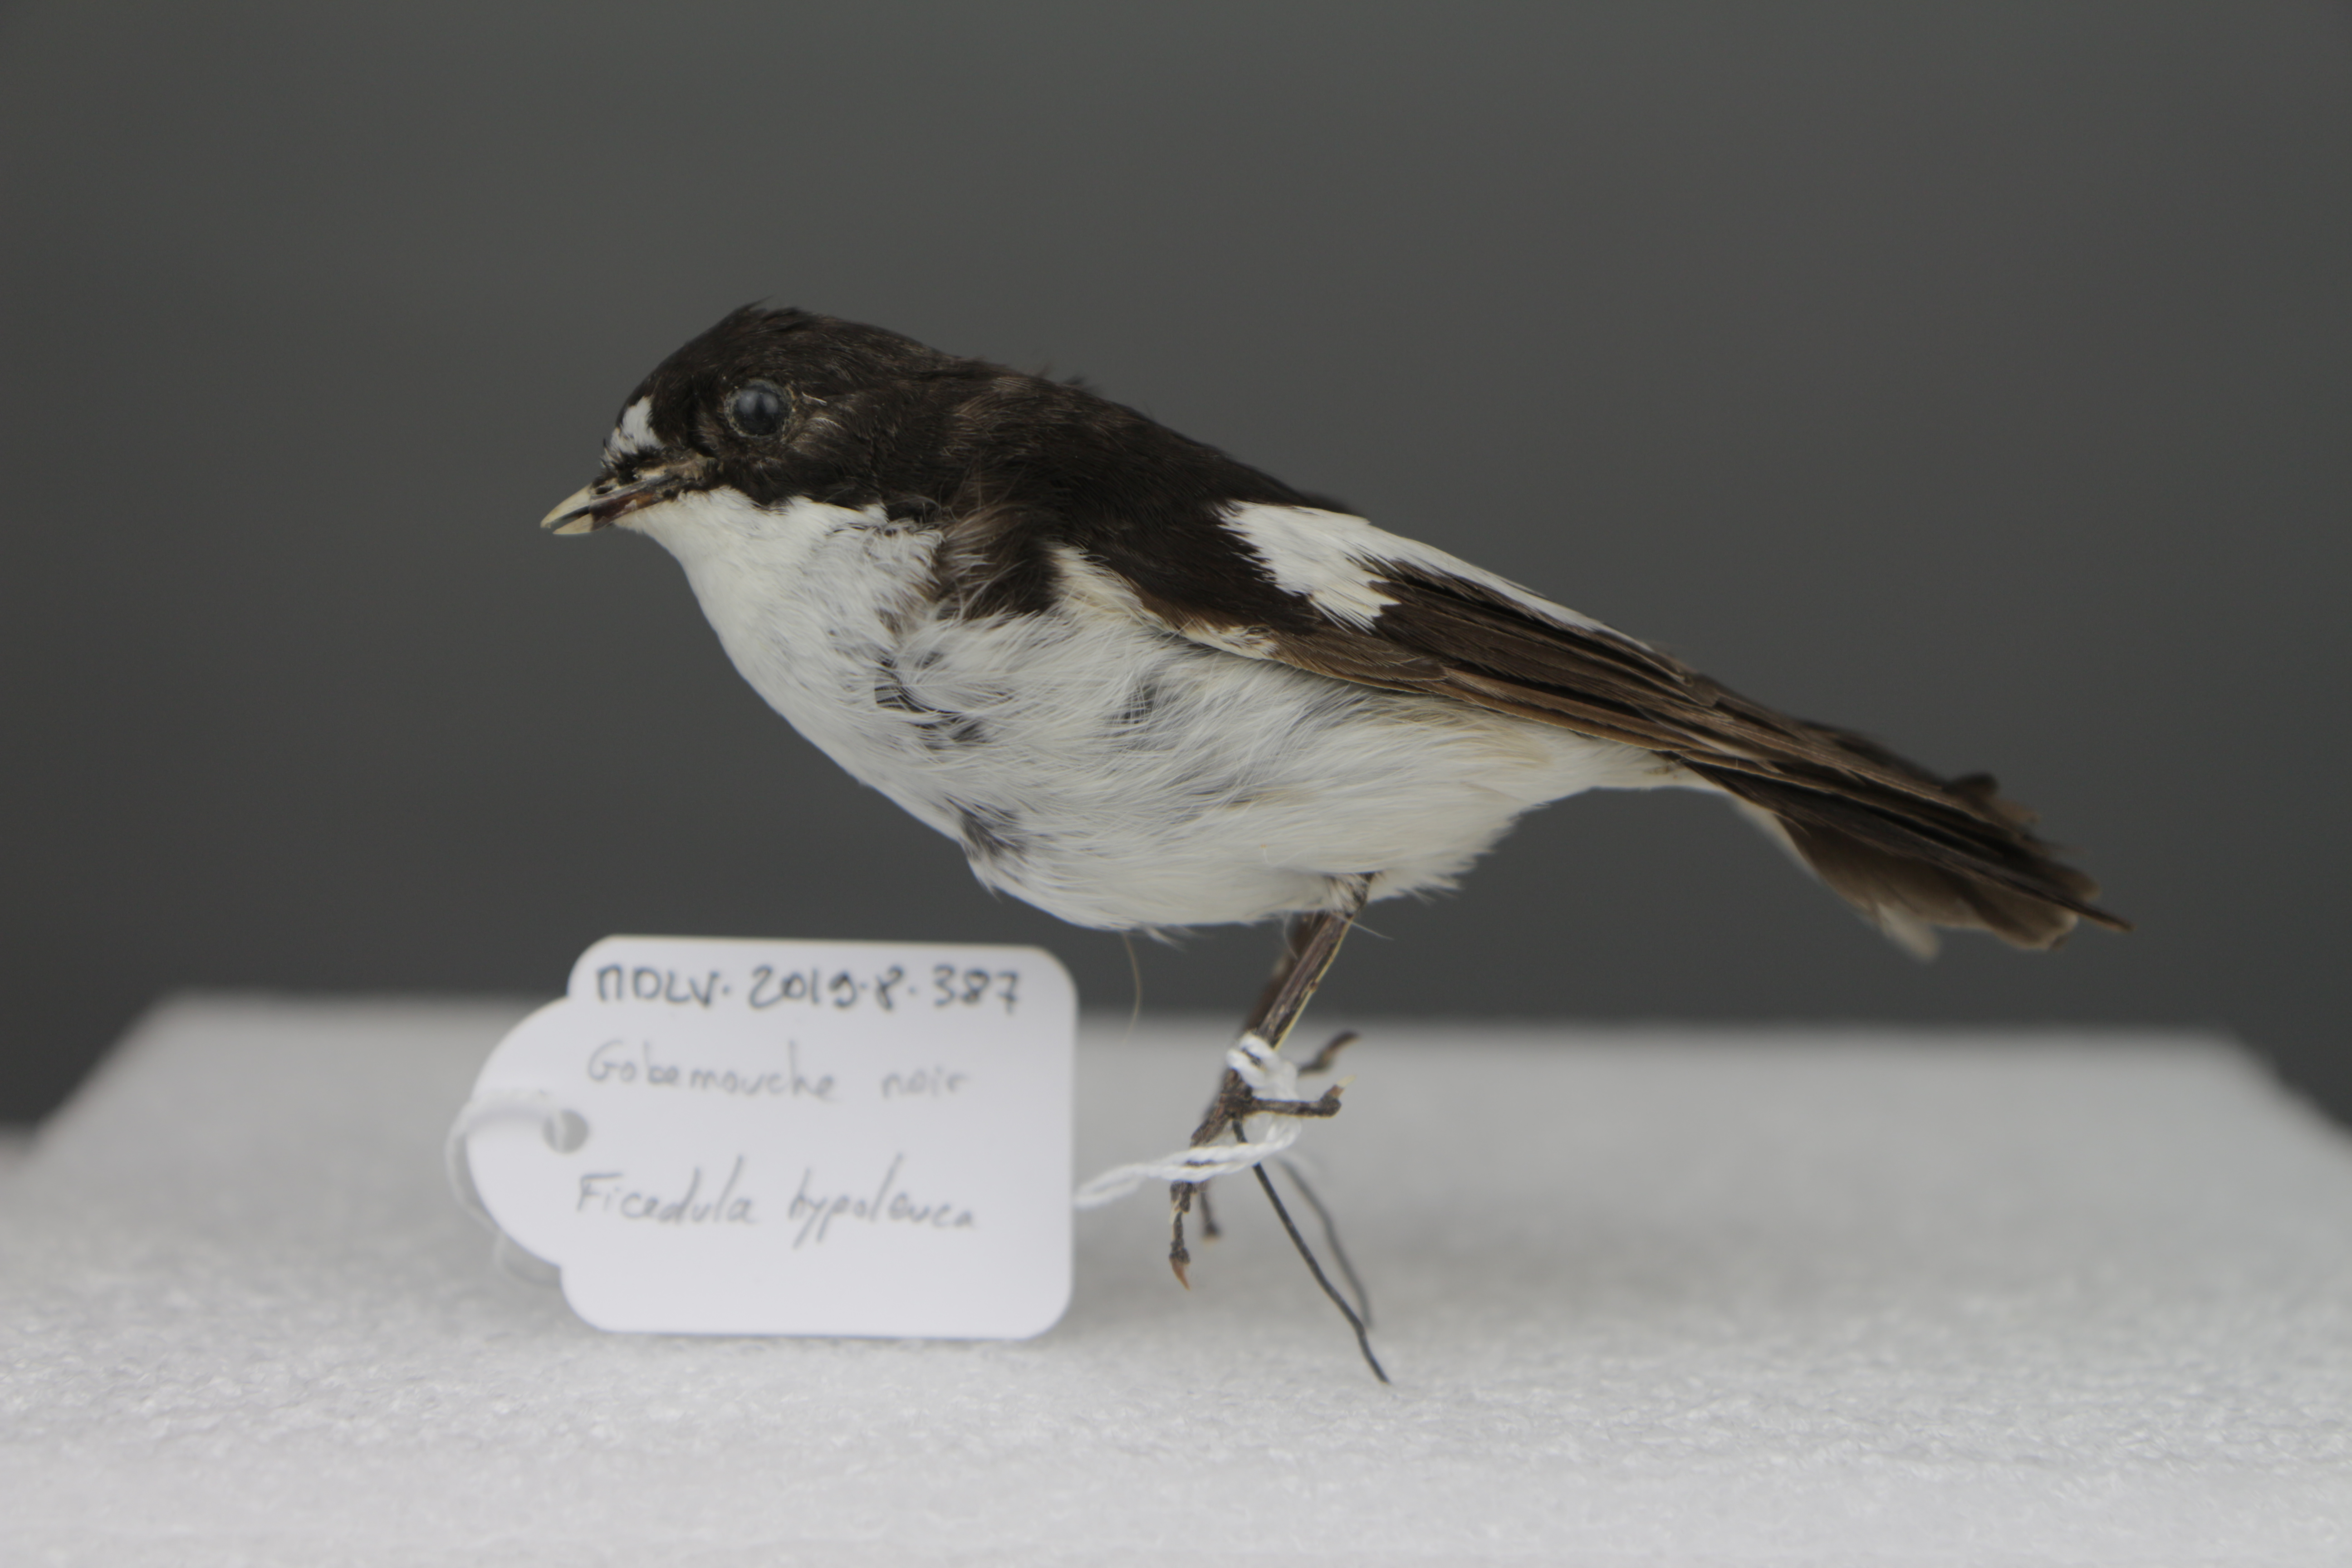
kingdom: Animalia
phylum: Chordata
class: Aves
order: Passeriformes
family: Muscicapidae
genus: Ficedula
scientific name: Ficedula hypoleuca
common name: European pied flycatcher
